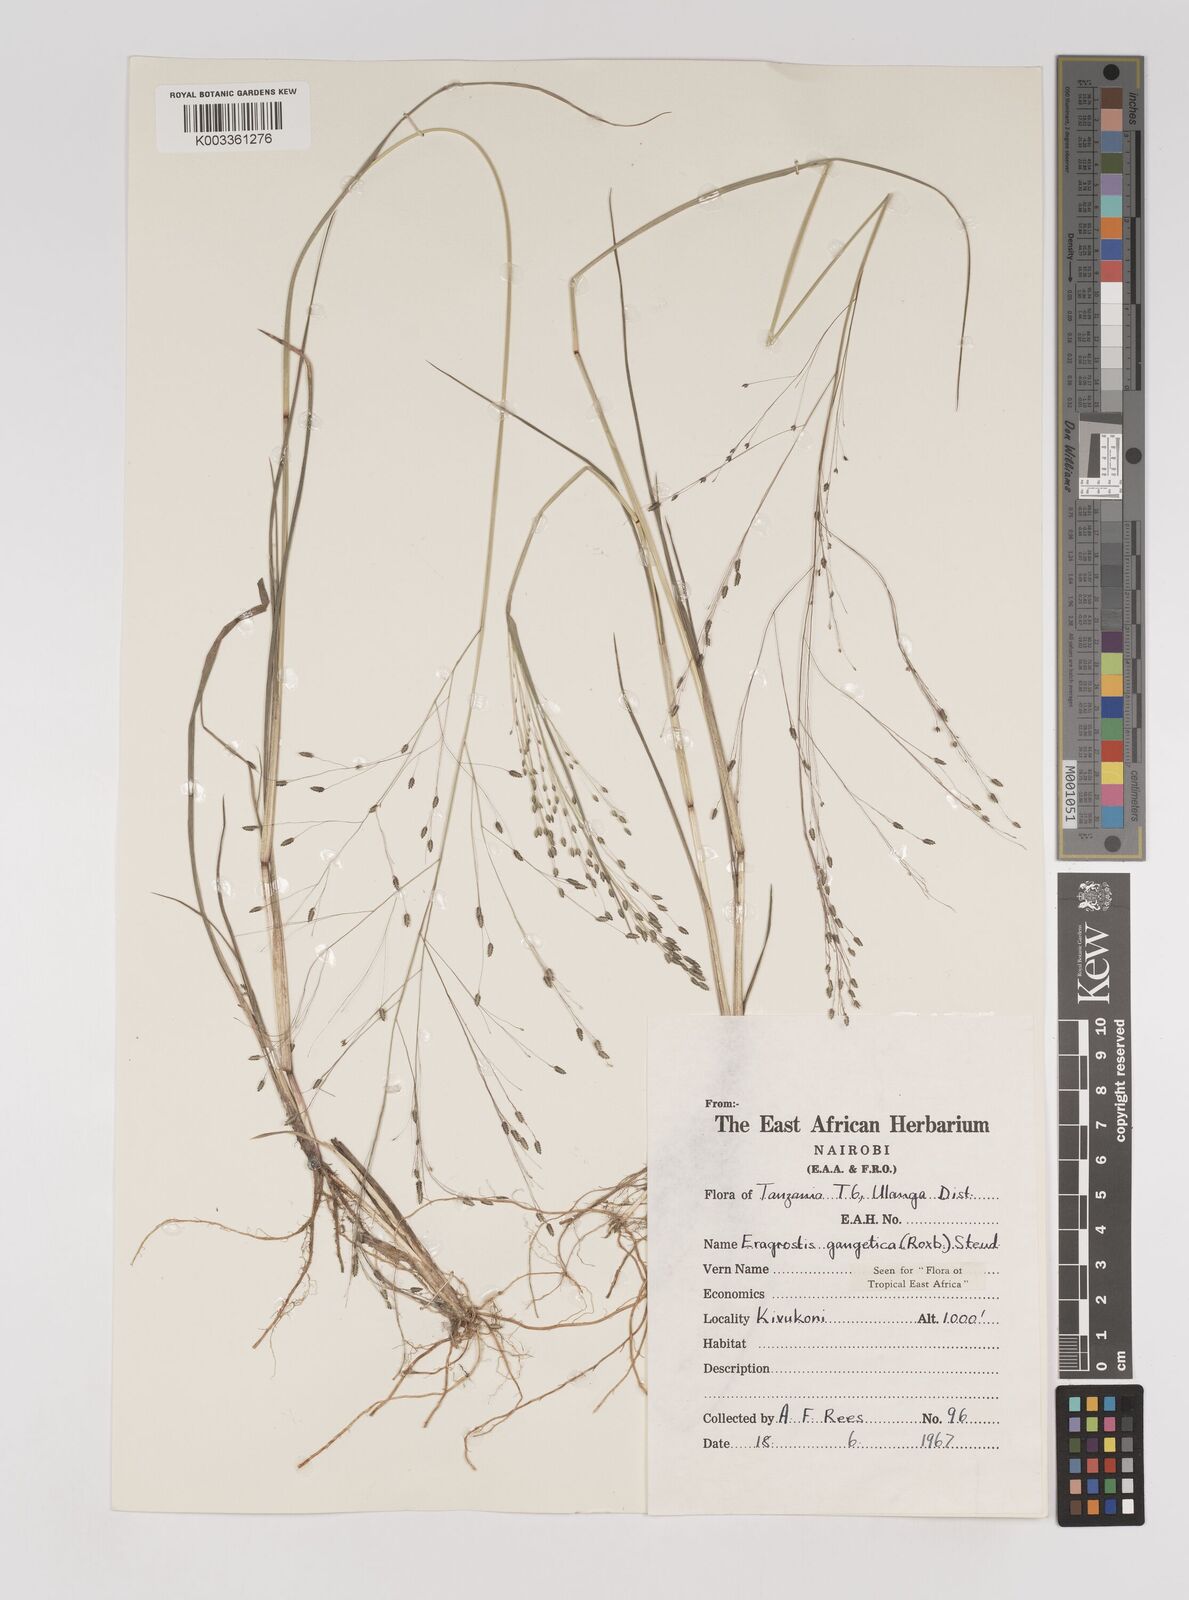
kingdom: Plantae
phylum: Tracheophyta
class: Liliopsida
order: Poales
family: Poaceae
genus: Eragrostis
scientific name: Eragrostis gangetica
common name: Slimflower lovegrass
